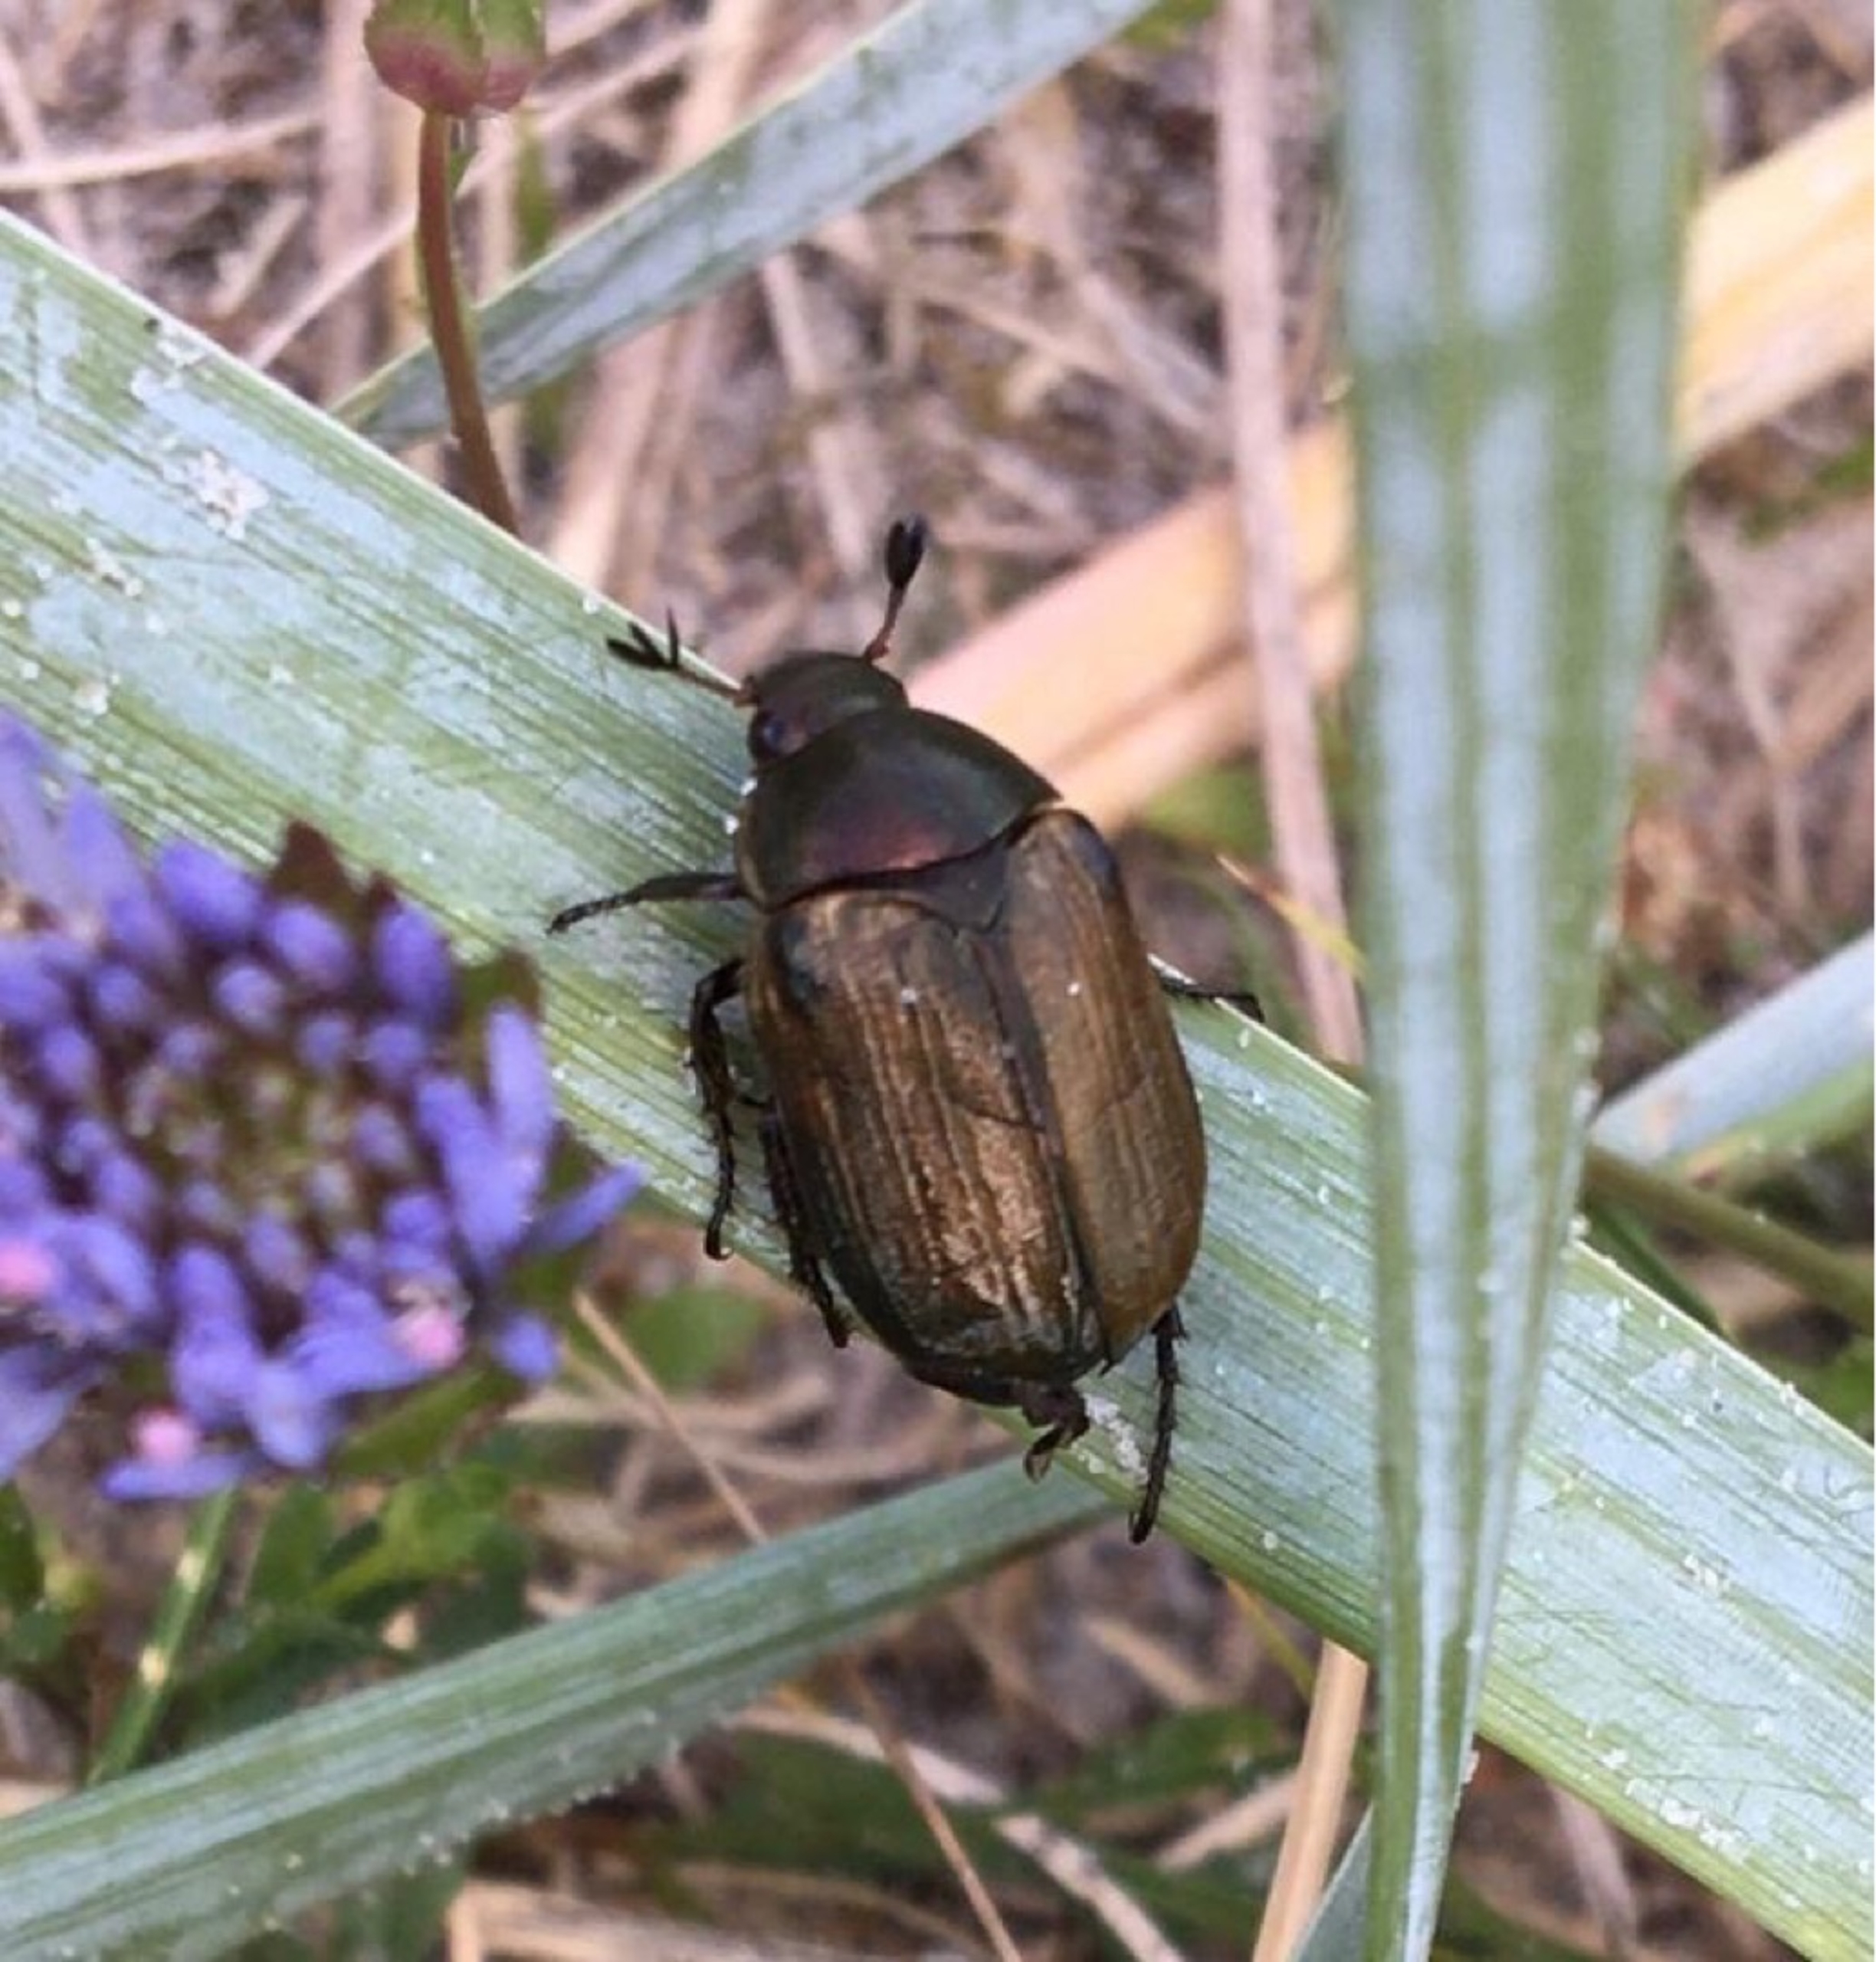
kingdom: Animalia
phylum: Arthropoda
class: Insecta
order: Coleoptera
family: Scarabaeidae
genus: Anomala
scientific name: Anomala dubia
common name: Klitoldenborre
